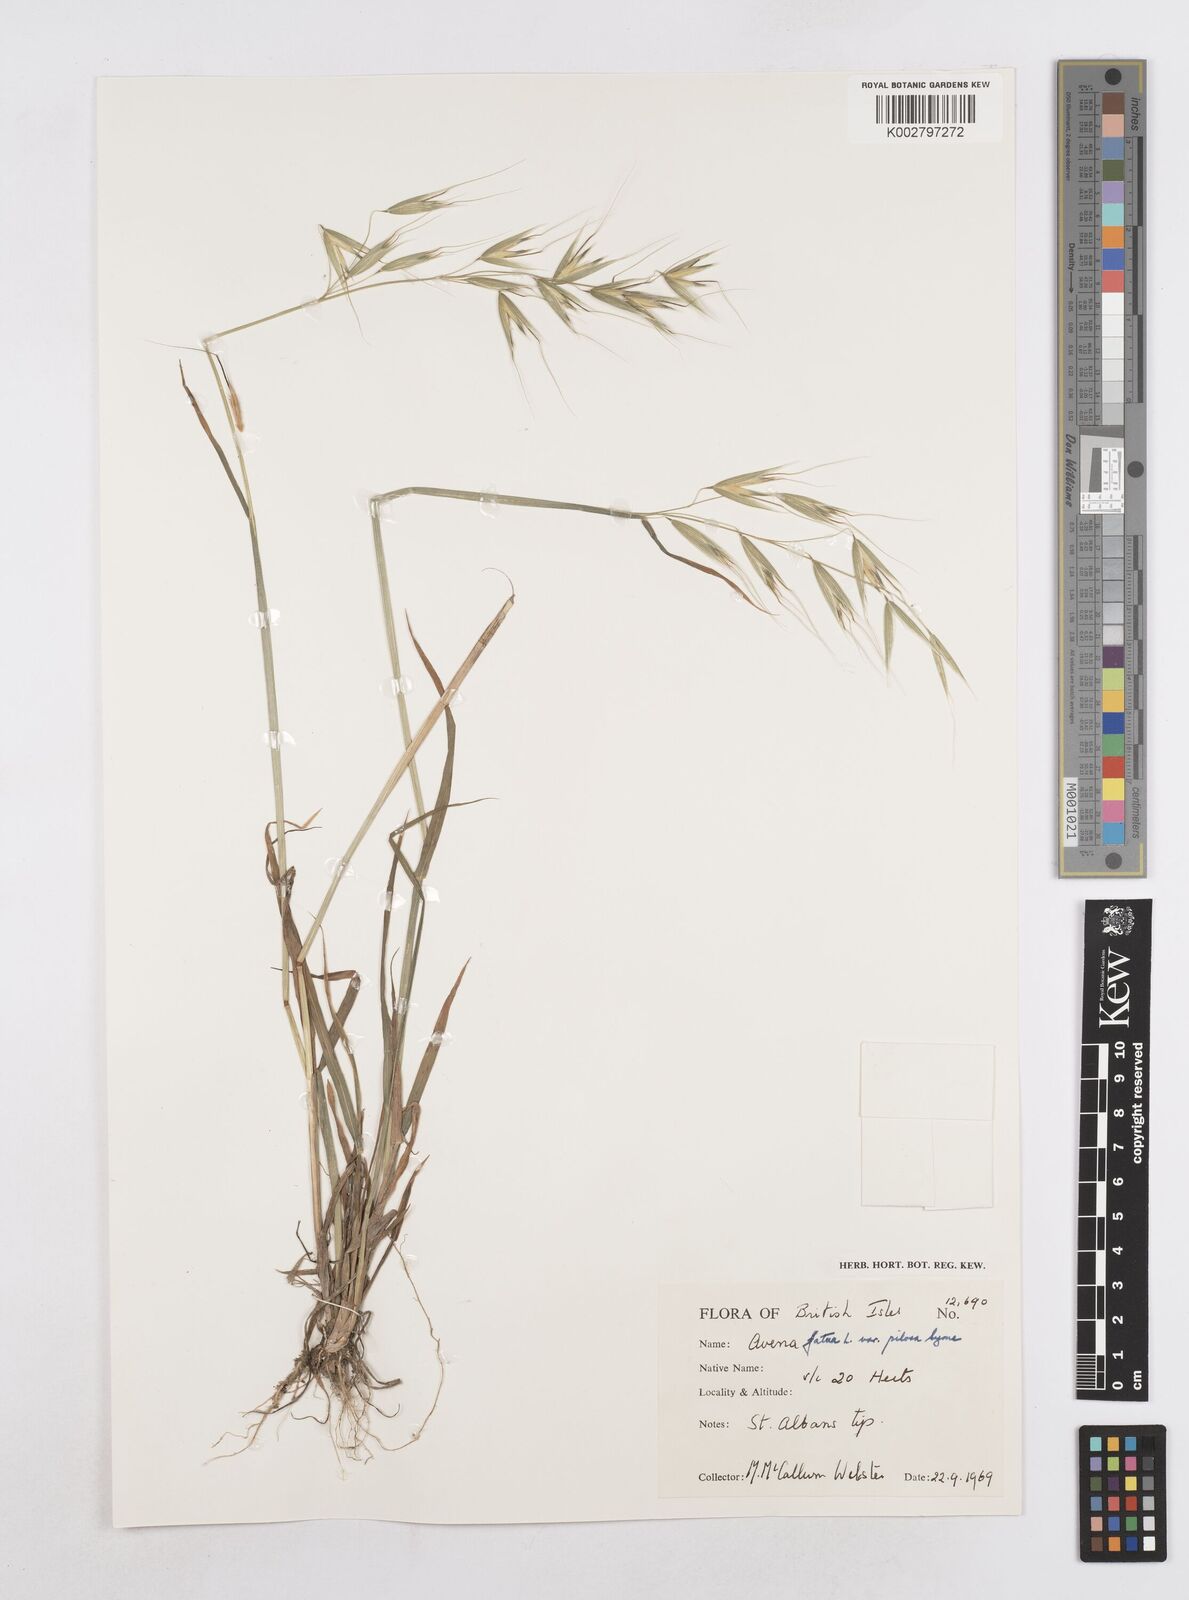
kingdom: Plantae
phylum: Tracheophyta
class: Liliopsida
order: Poales
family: Poaceae
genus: Avena
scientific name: Avena fatua
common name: Wild oat
